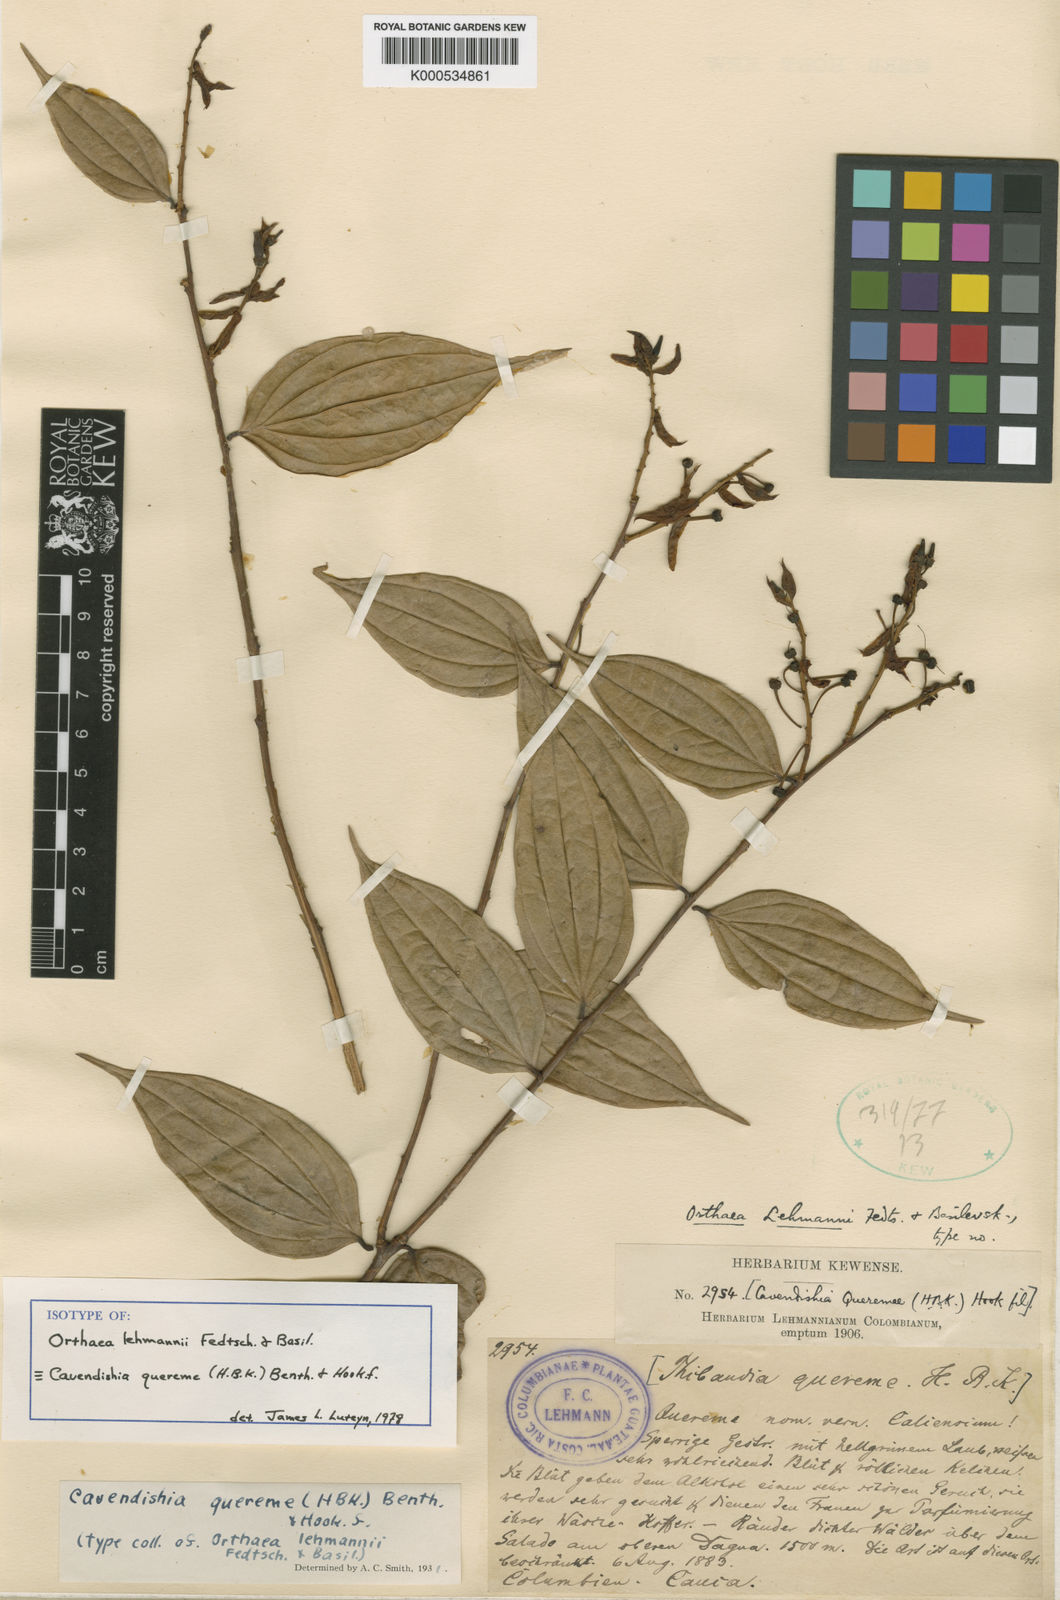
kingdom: Plantae
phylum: Tracheophyta
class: Magnoliopsida
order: Ericales
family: Ericaceae
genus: Cavendishia
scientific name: Cavendishia quereme
